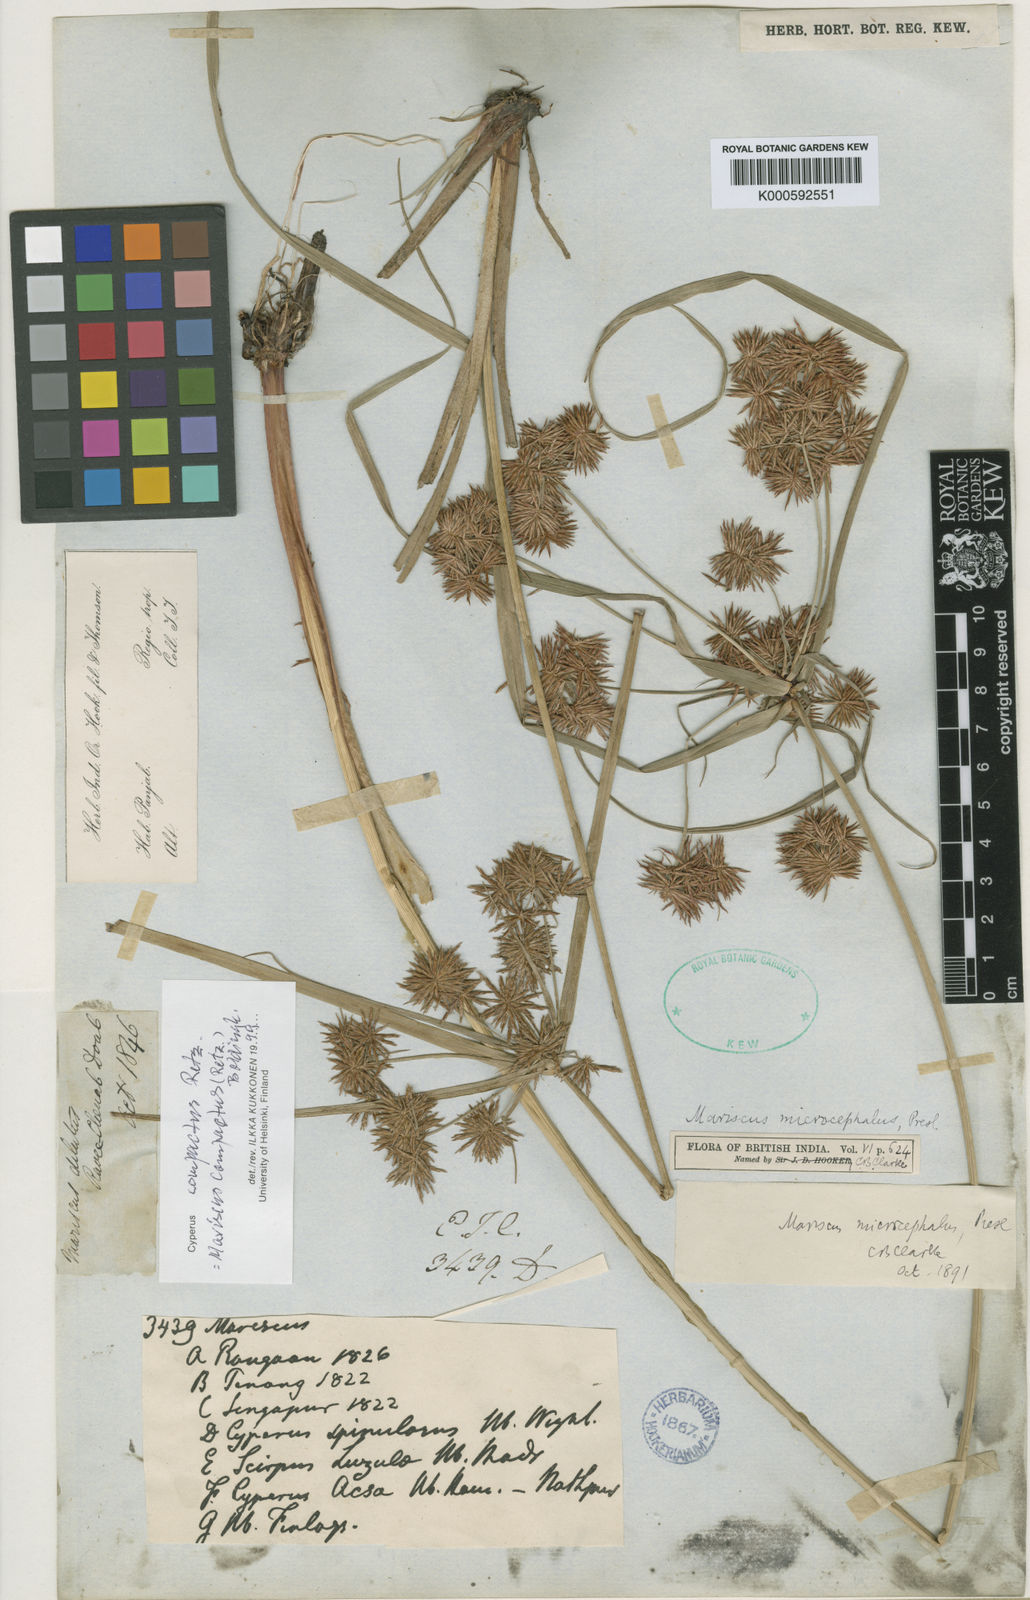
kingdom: Plantae
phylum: Tracheophyta
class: Liliopsida
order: Poales
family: Cyperaceae
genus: Cyperus
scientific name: Cyperus compactus
